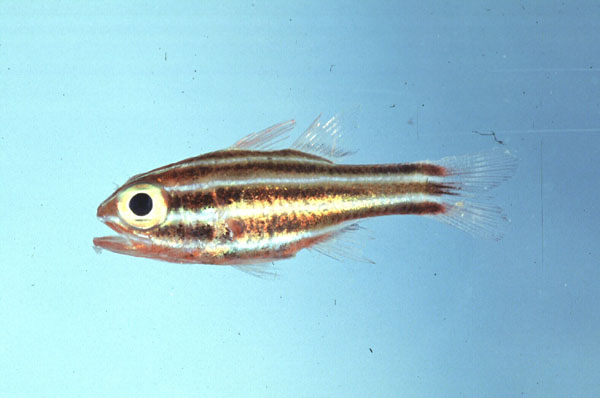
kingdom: Animalia
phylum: Chordata
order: Perciformes
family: Apogonidae
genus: Ostorhinchus
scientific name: Ostorhinchus taeniophorus
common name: Reef-flat cardinalfish
